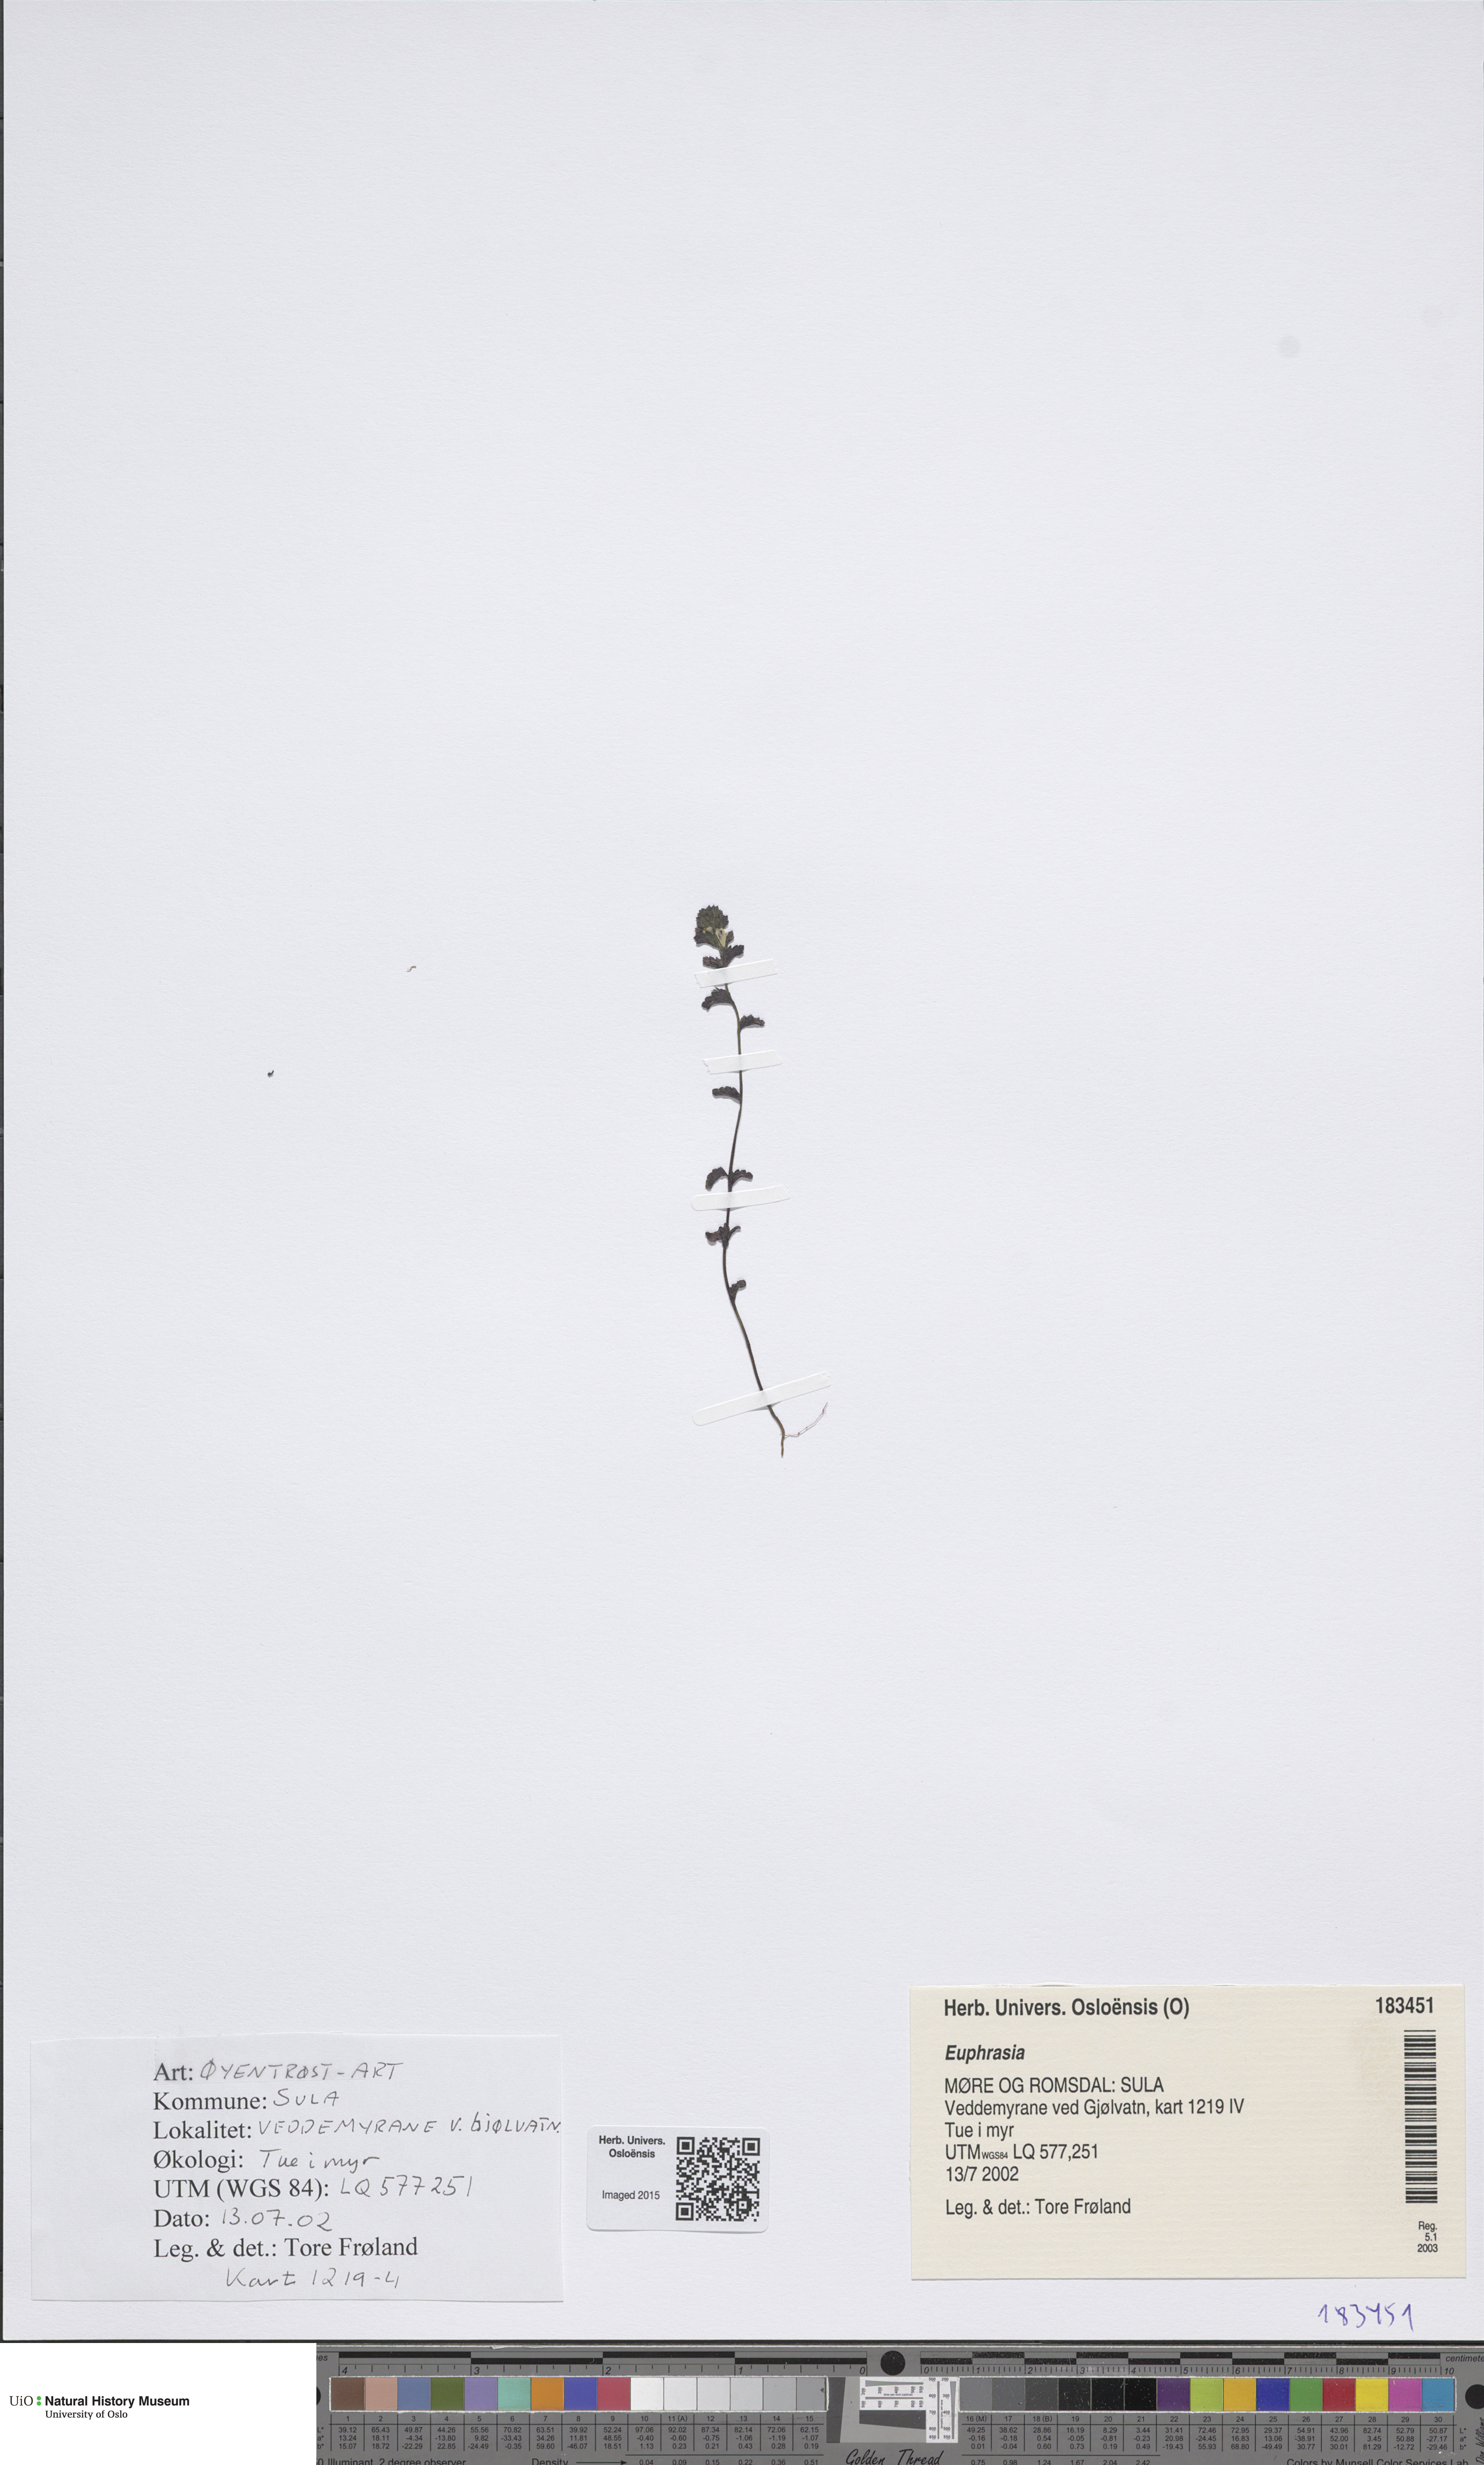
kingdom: Plantae
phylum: Tracheophyta
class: Magnoliopsida
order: Lamiales
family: Orobanchaceae
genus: Euphrasia
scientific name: Euphrasia
